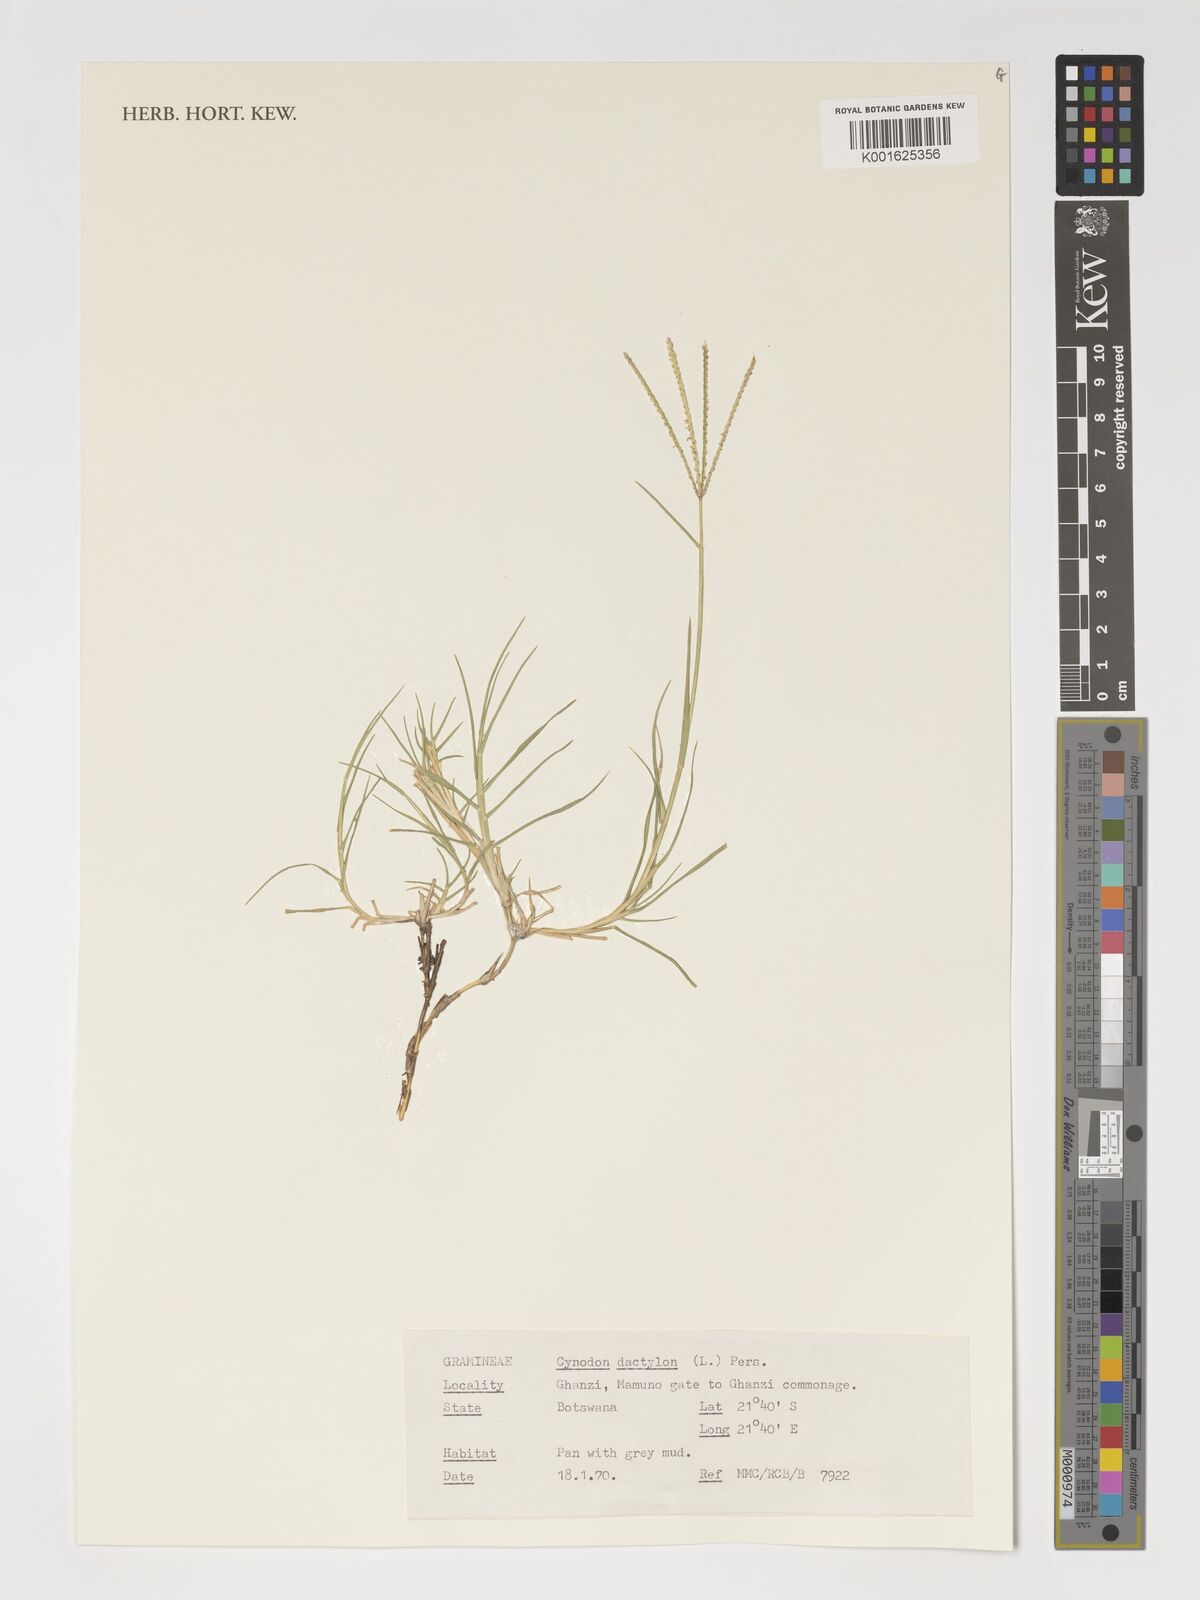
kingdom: Plantae
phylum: Tracheophyta
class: Liliopsida
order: Poales
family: Poaceae
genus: Cynodon
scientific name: Cynodon dactylon
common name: Bermuda grass
